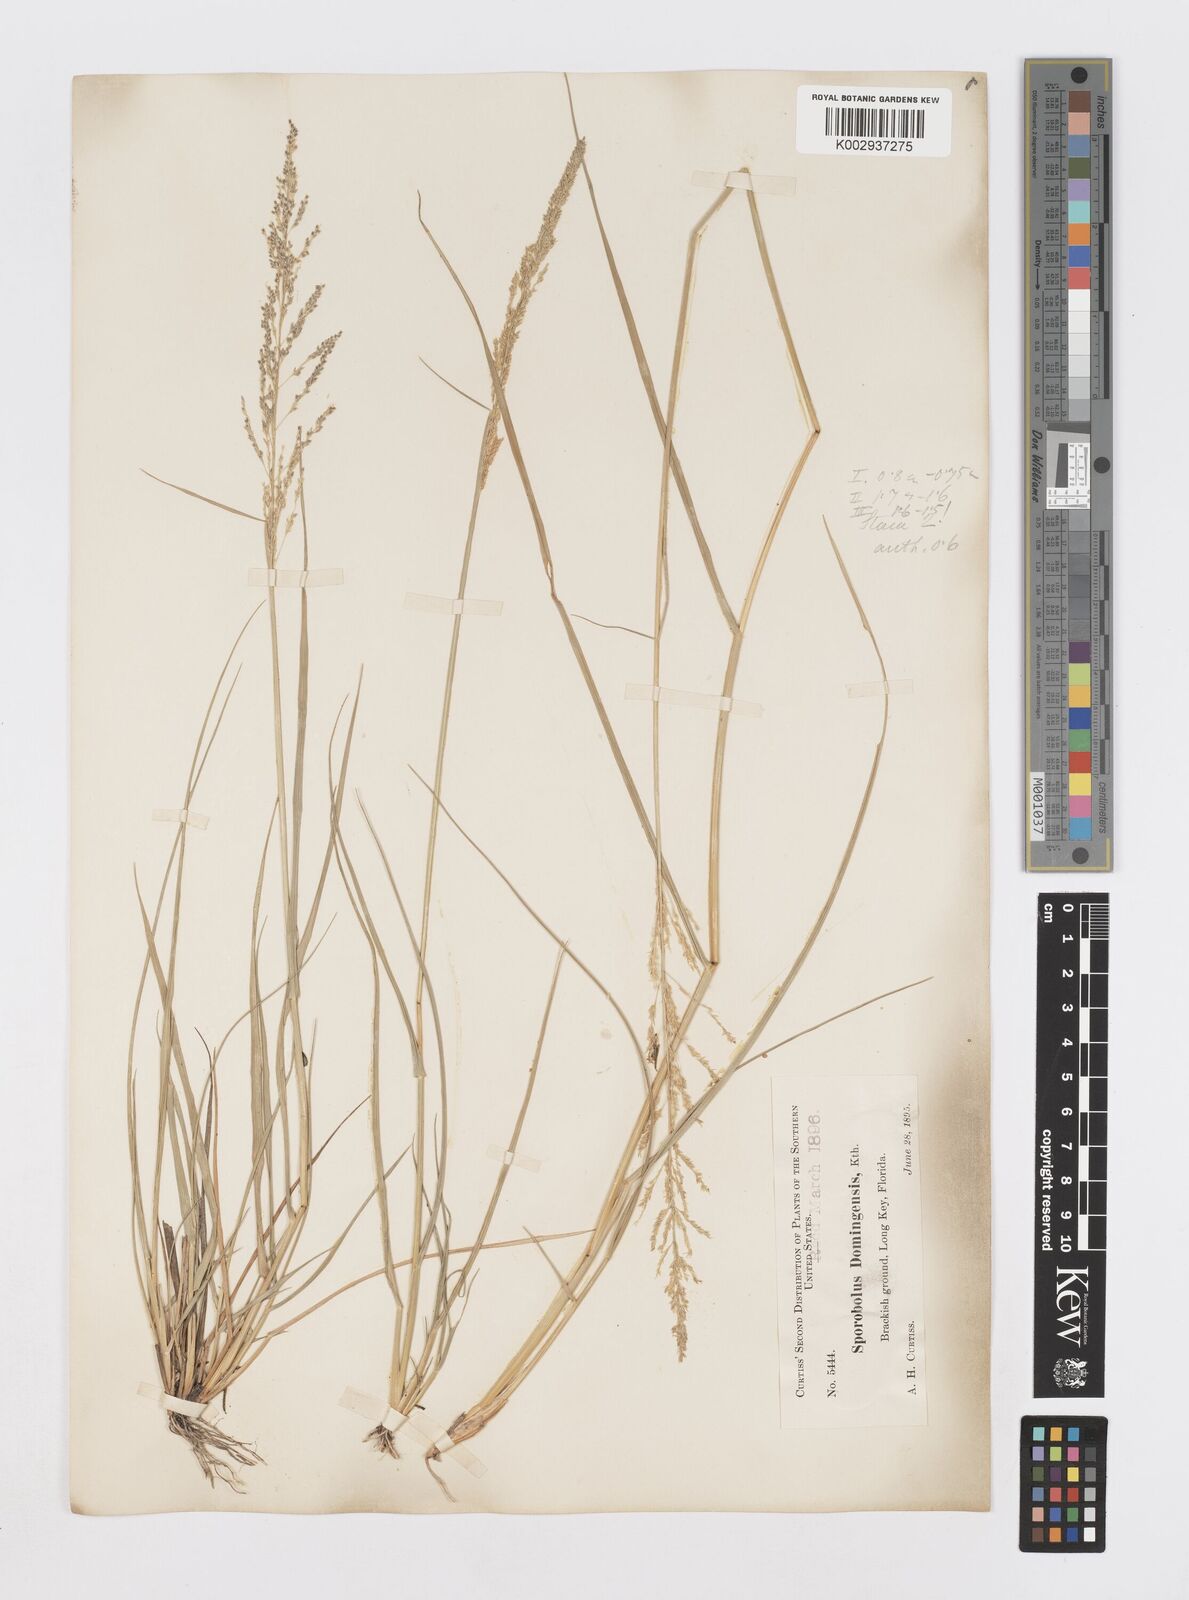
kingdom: Plantae
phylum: Tracheophyta
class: Liliopsida
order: Poales
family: Poaceae
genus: Sporobolus
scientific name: Sporobolus domingensis
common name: Coral dropseed
